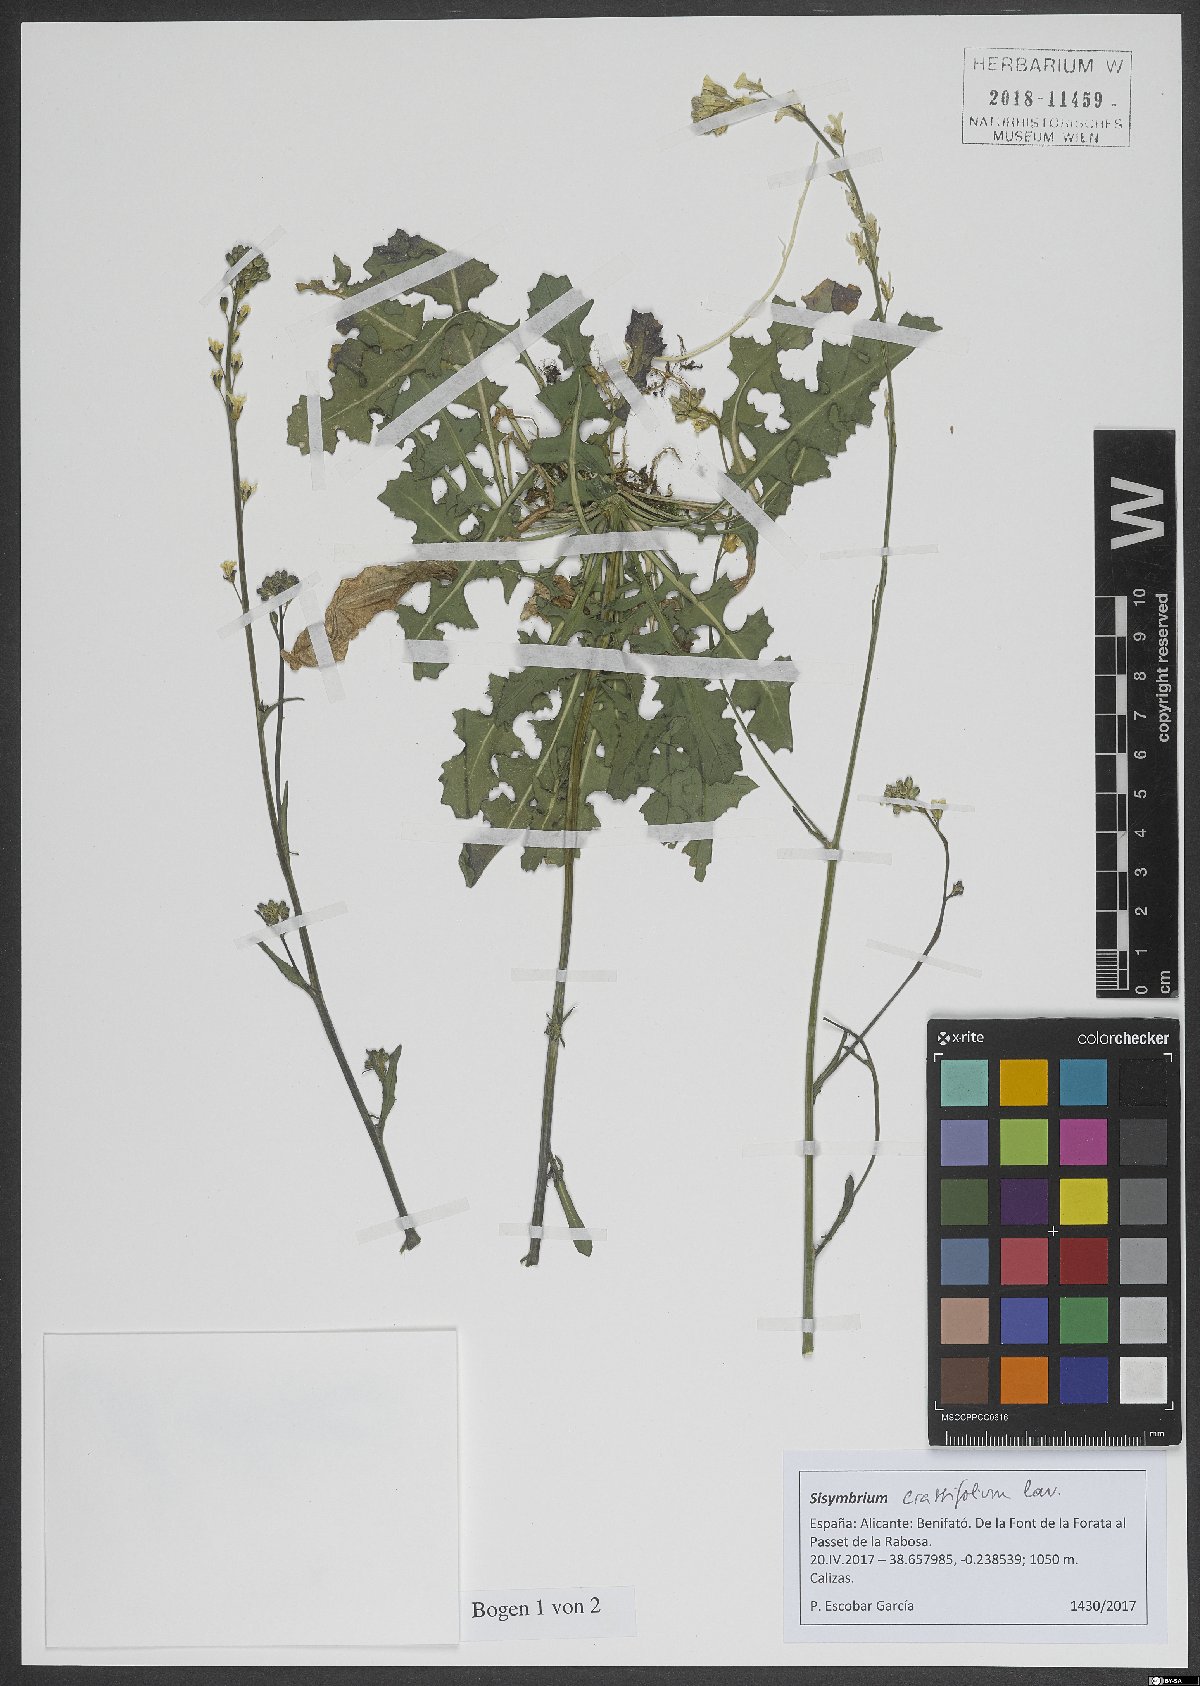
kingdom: Plantae
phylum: Tracheophyta
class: Magnoliopsida
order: Brassicales
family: Brassicaceae
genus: Sisymbrium
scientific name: Sisymbrium crassifolium
